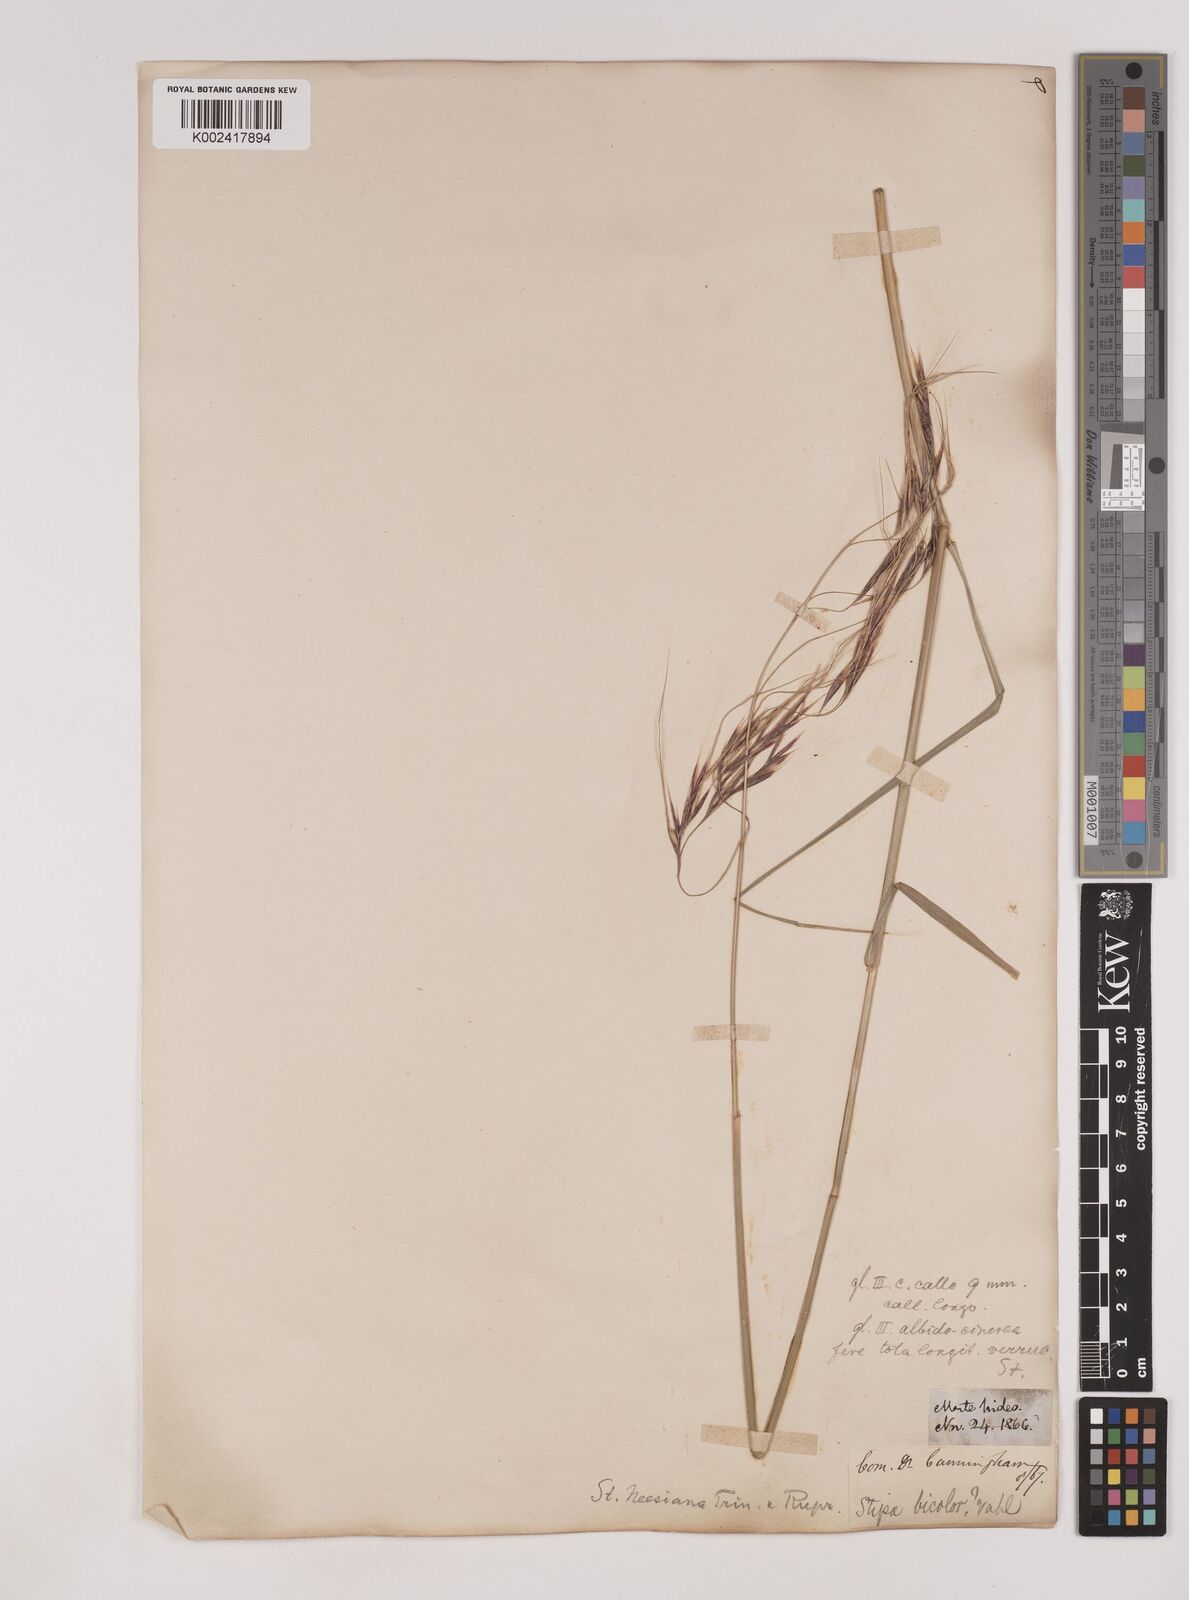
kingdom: Plantae
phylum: Tracheophyta
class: Liliopsida
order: Poales
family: Poaceae
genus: Nassella
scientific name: Nassella neesiana
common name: American needle-grass
